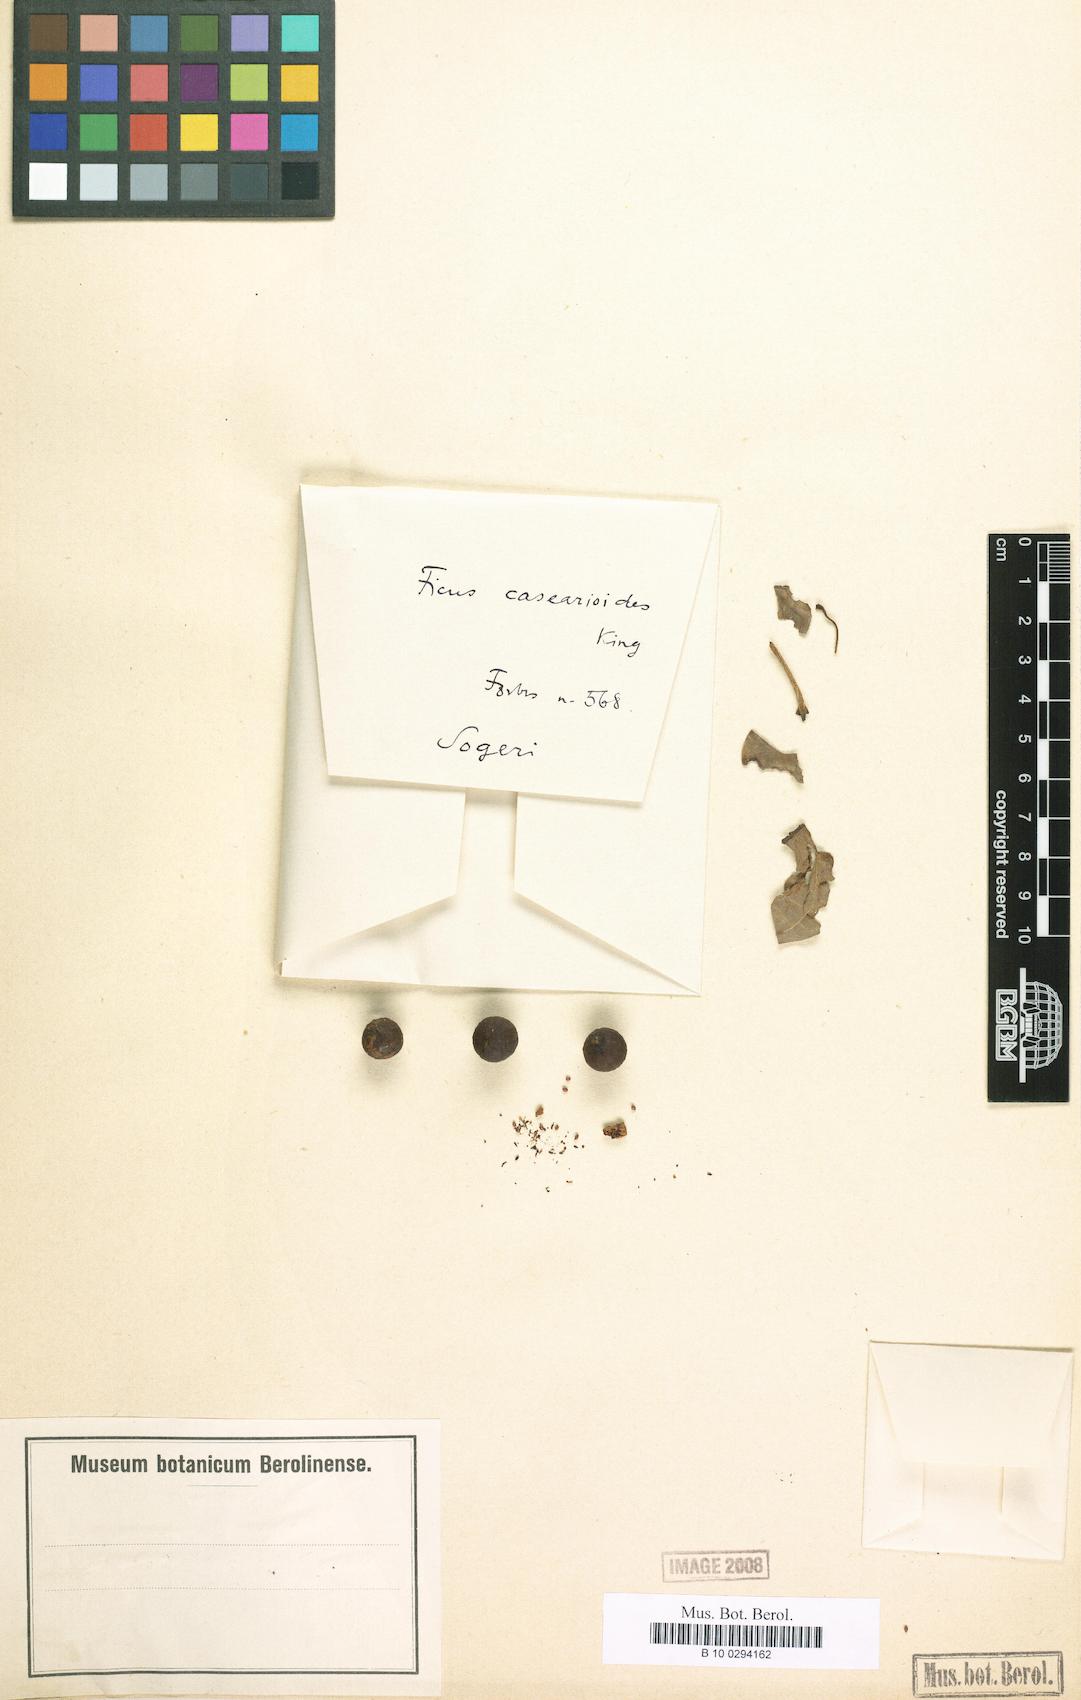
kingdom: Plantae
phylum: Tracheophyta
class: Magnoliopsida
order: Rosales
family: Moraceae
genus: Ficus
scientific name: Ficus casearioides
